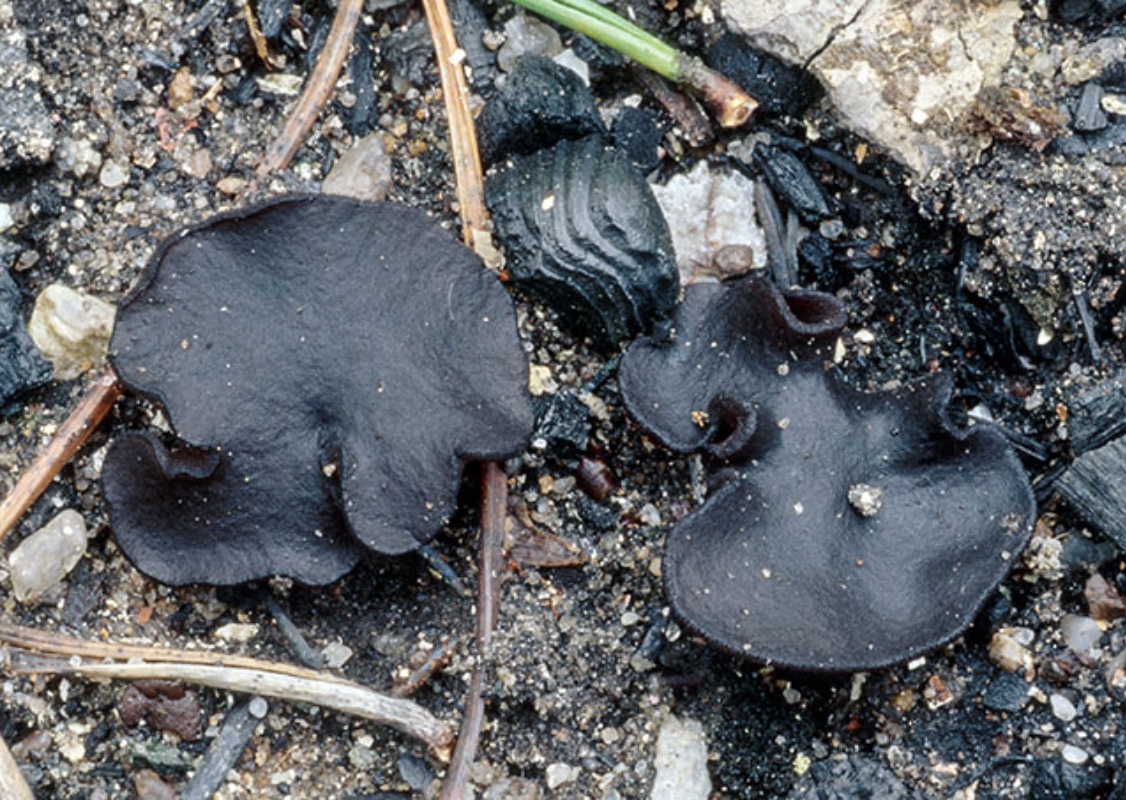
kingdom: Fungi
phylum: Ascomycota
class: Pezizomycetes
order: Pezizales
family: Pyronemataceae
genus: Plicaria
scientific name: Plicaria trachycarpa
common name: vortesporet bålbæger
